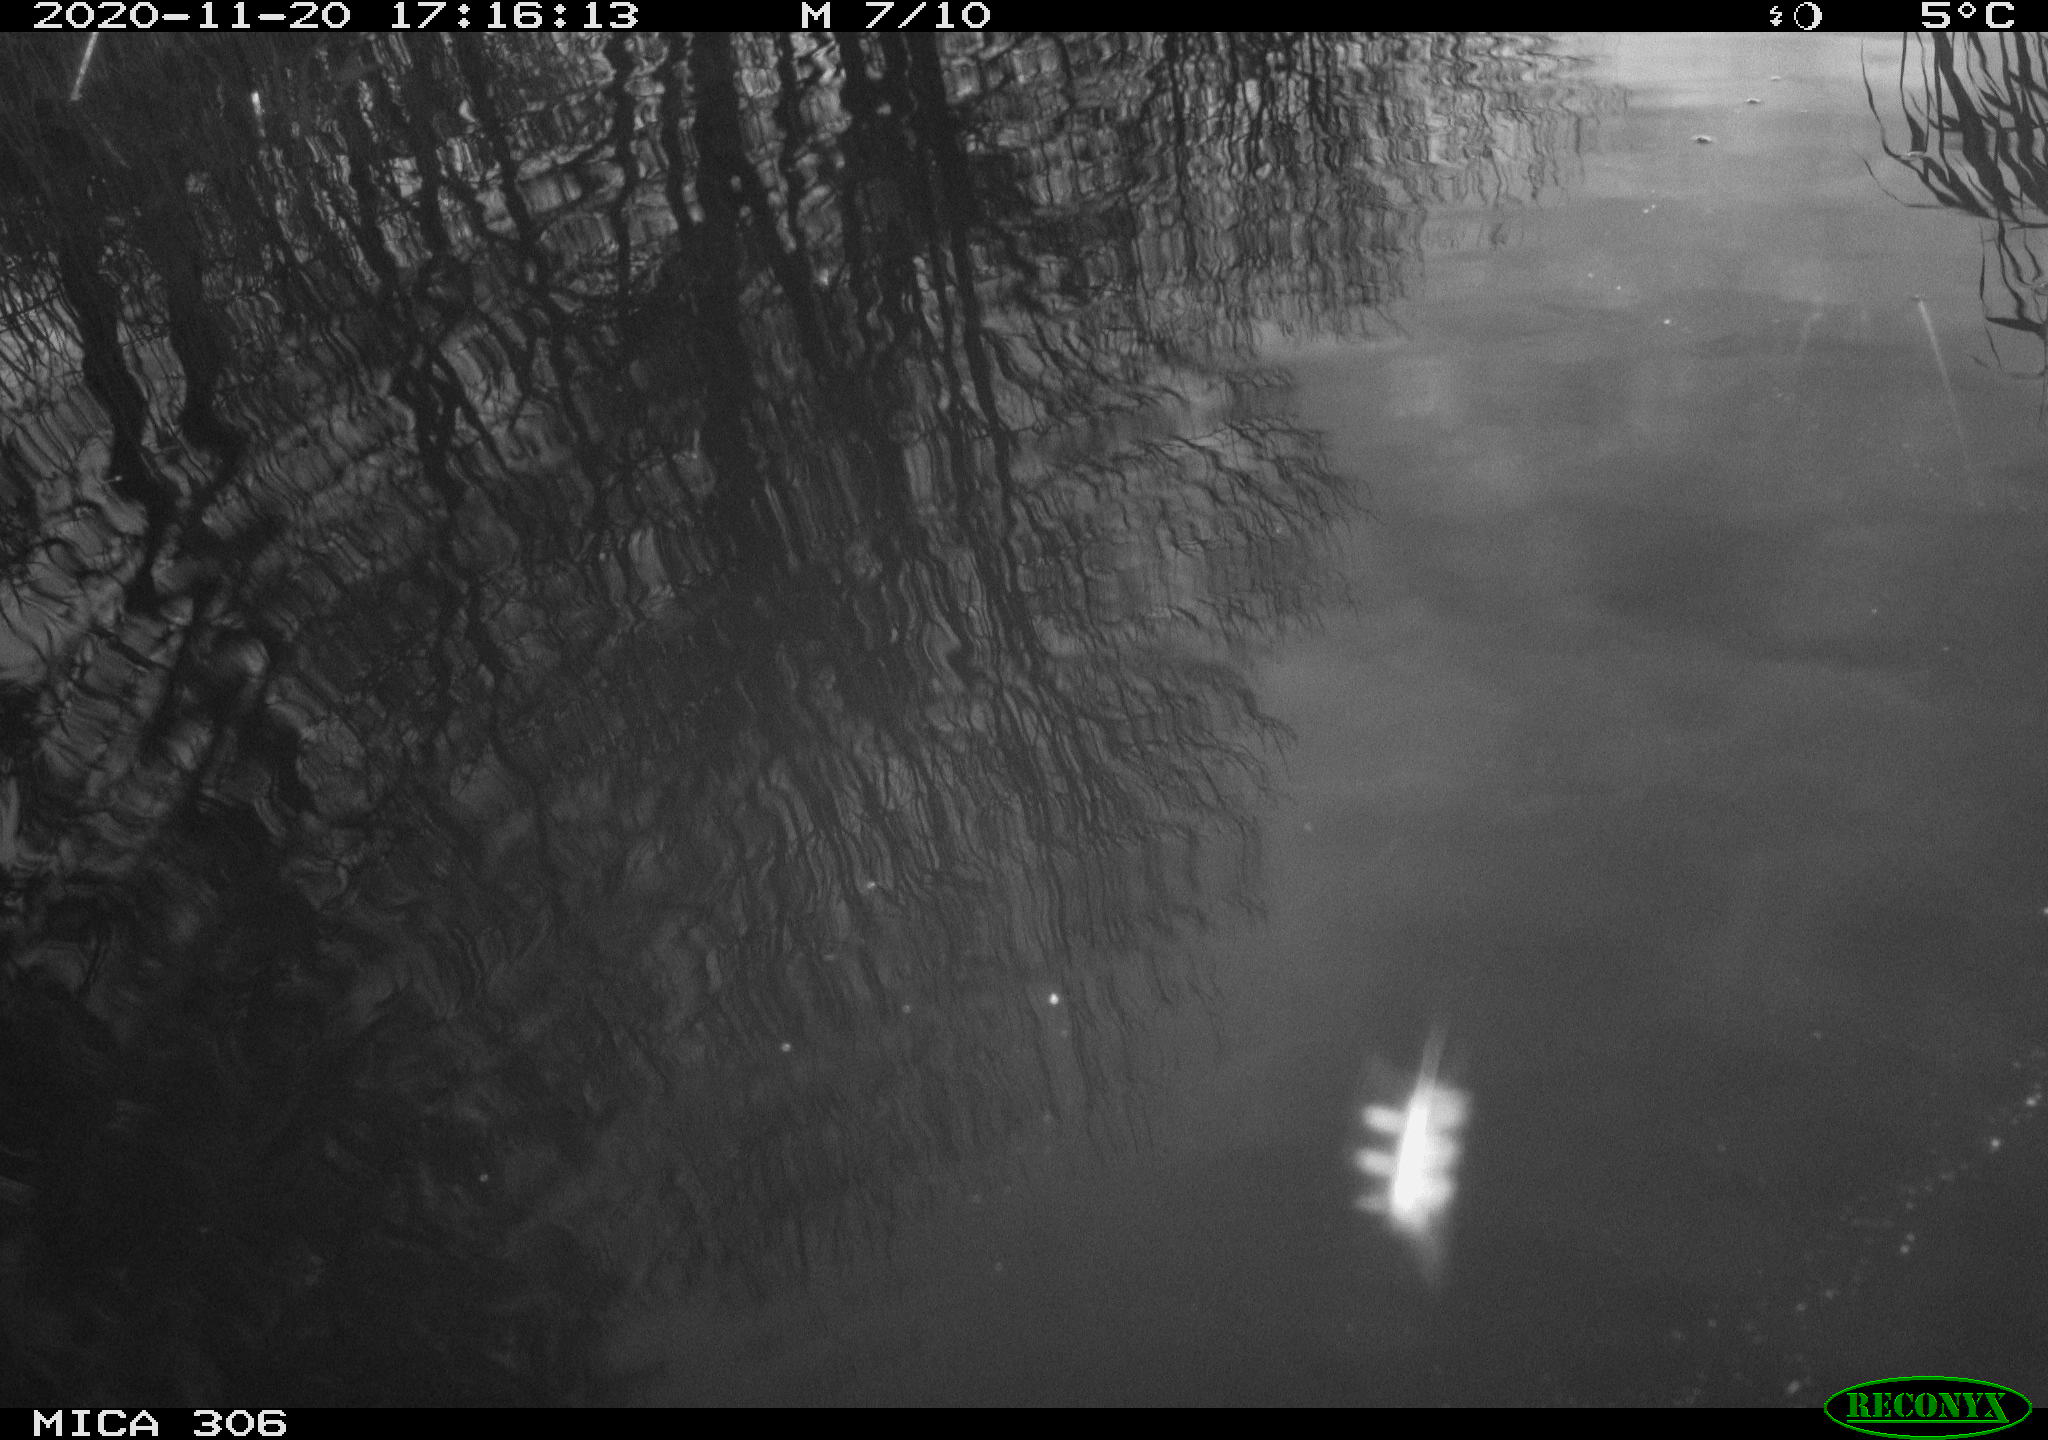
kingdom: Animalia
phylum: Chordata
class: Aves
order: Gruiformes
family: Rallidae
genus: Gallinula
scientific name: Gallinula chloropus
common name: Common moorhen
